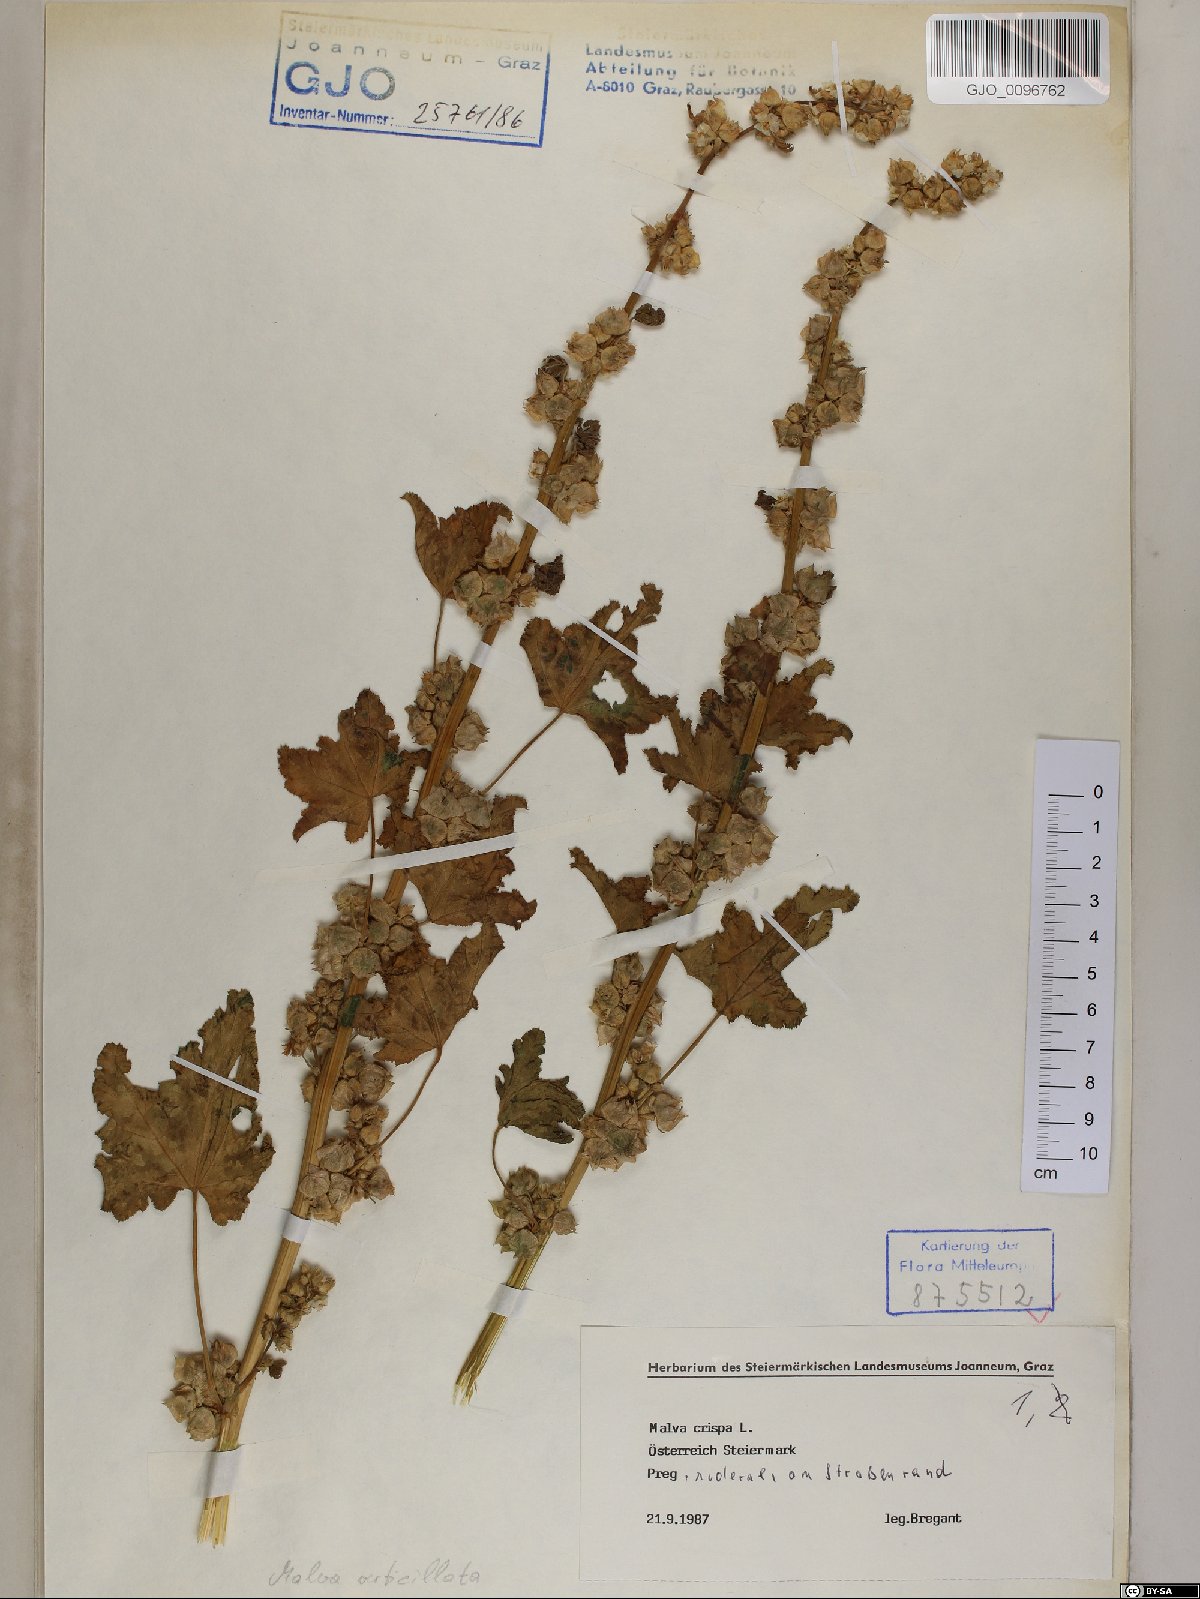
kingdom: Plantae
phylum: Tracheophyta
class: Magnoliopsida
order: Malvales
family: Malvaceae
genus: Malva
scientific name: Malva verticillata
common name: Chinese mallow
